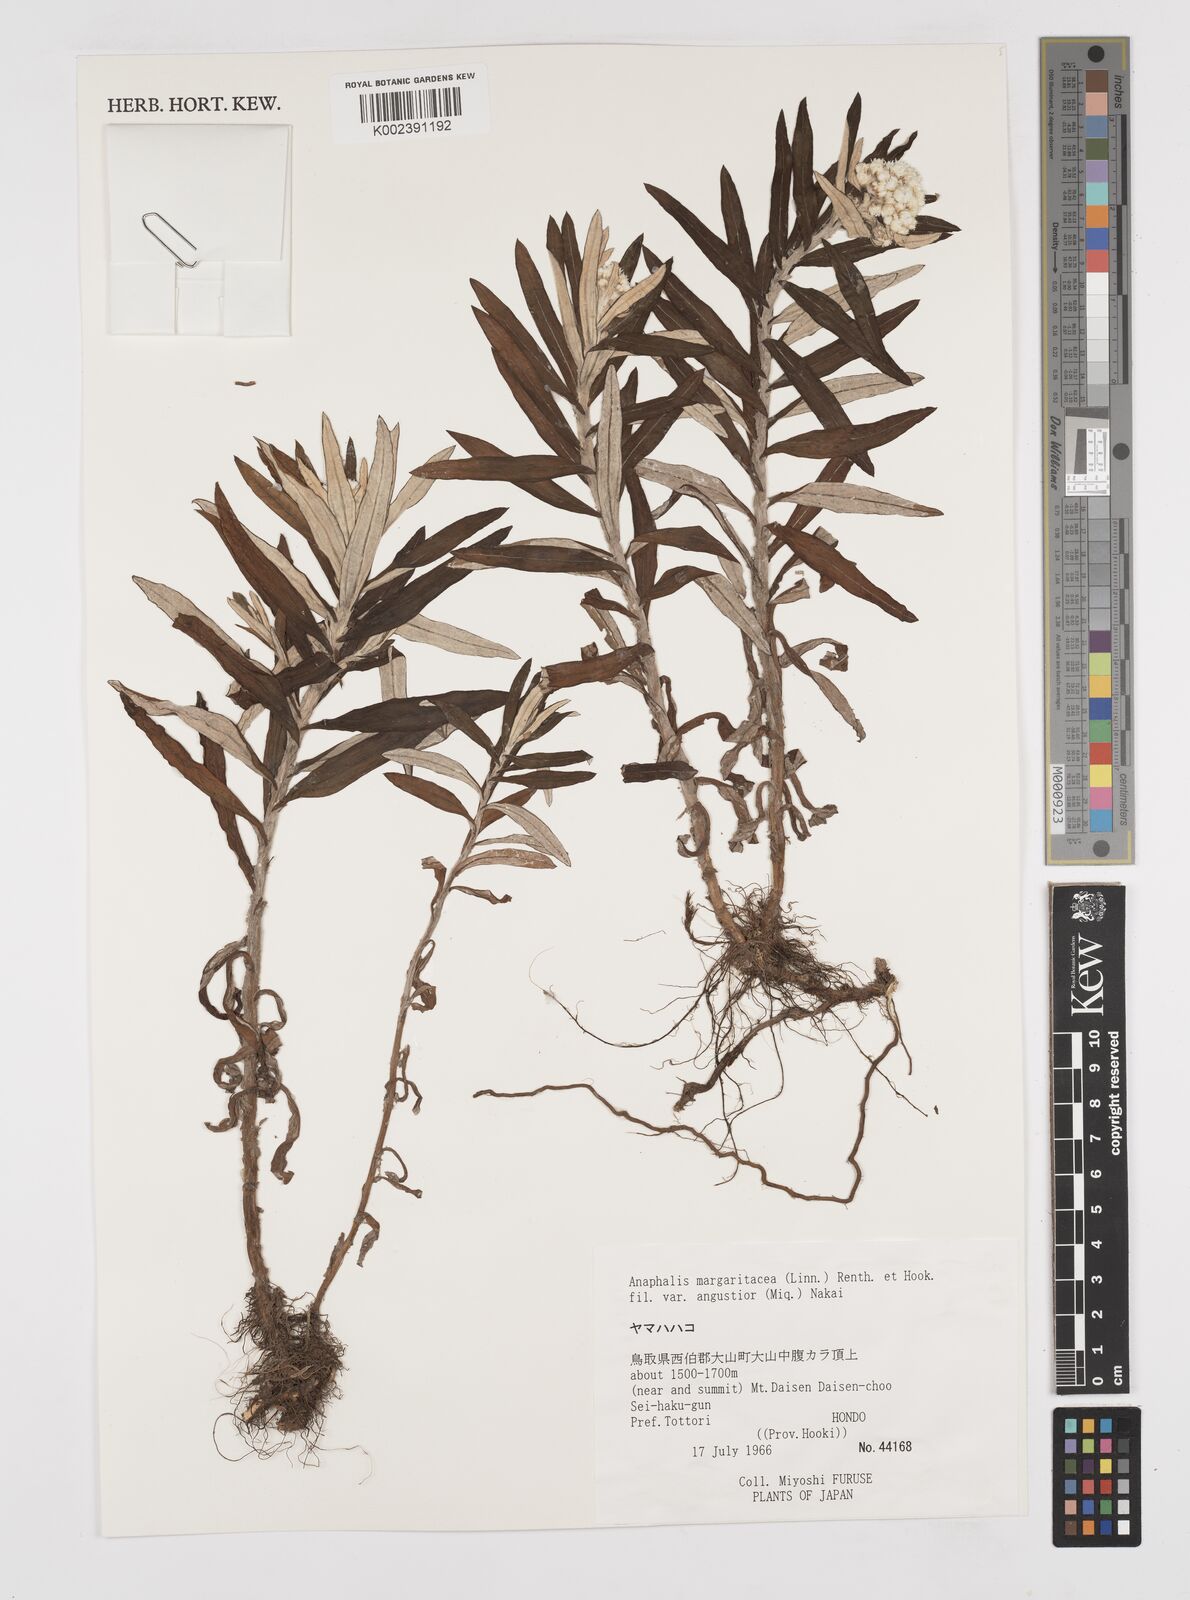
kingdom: Plantae
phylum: Tracheophyta
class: Magnoliopsida
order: Asterales
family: Asteraceae
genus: Anaphalis
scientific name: Anaphalis margaritacea
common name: Pearly everlasting
